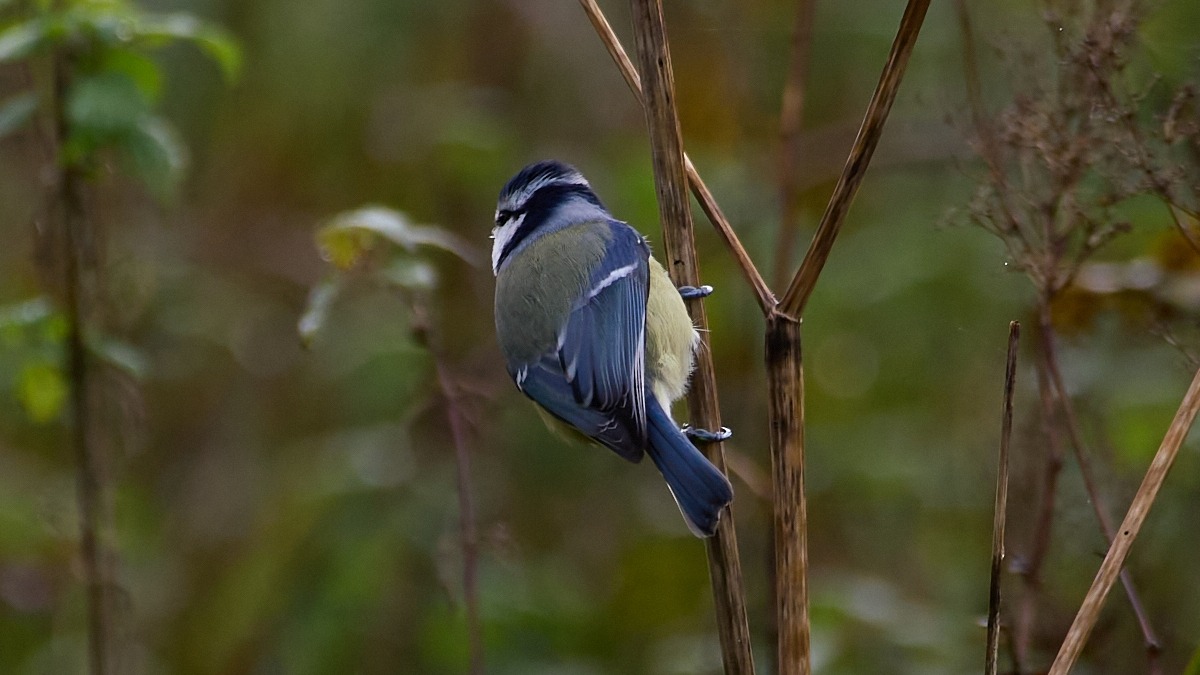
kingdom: Animalia
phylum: Chordata
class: Aves
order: Passeriformes
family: Paridae
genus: Cyanistes
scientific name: Cyanistes caeruleus
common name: Blåmejse
